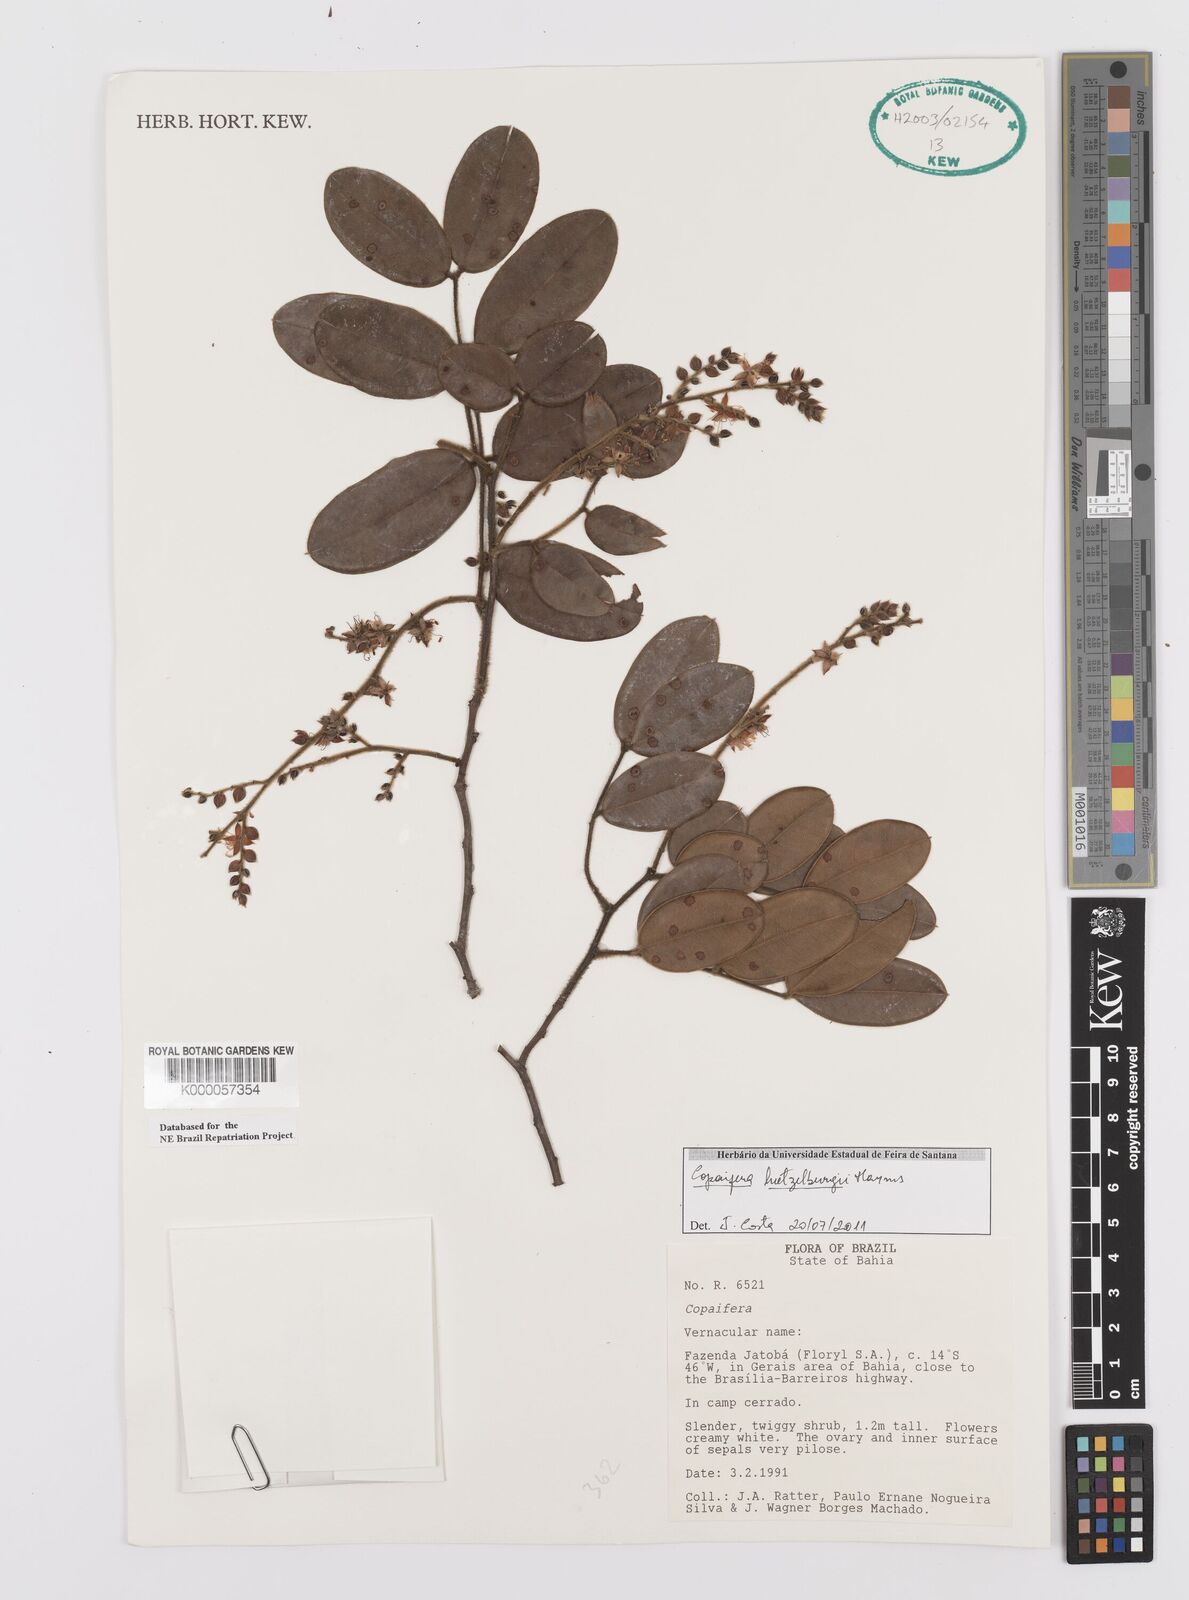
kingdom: Plantae
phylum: Tracheophyta
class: Magnoliopsida
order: Fabales
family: Fabaceae
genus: Copaifera
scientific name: Copaifera luetzelburgii
